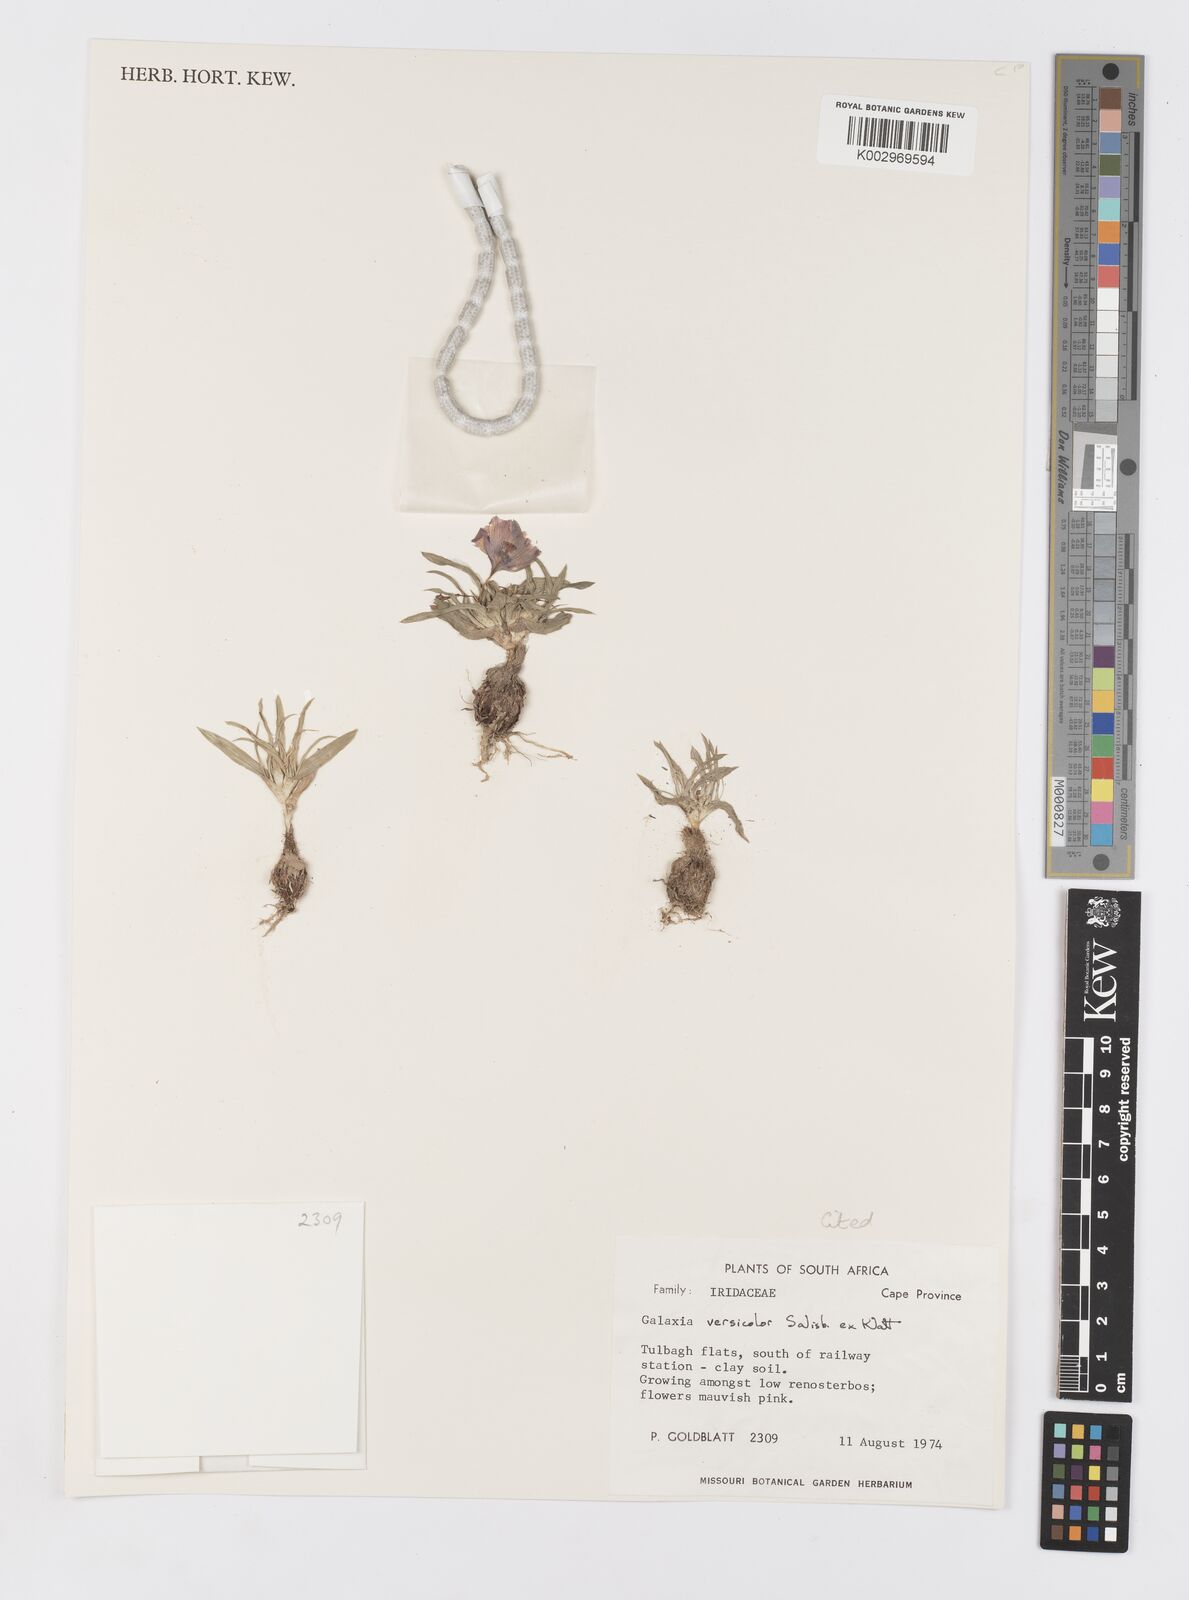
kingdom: Plantae
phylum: Tracheophyta
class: Liliopsida
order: Asparagales
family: Iridaceae
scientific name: Iridaceae
